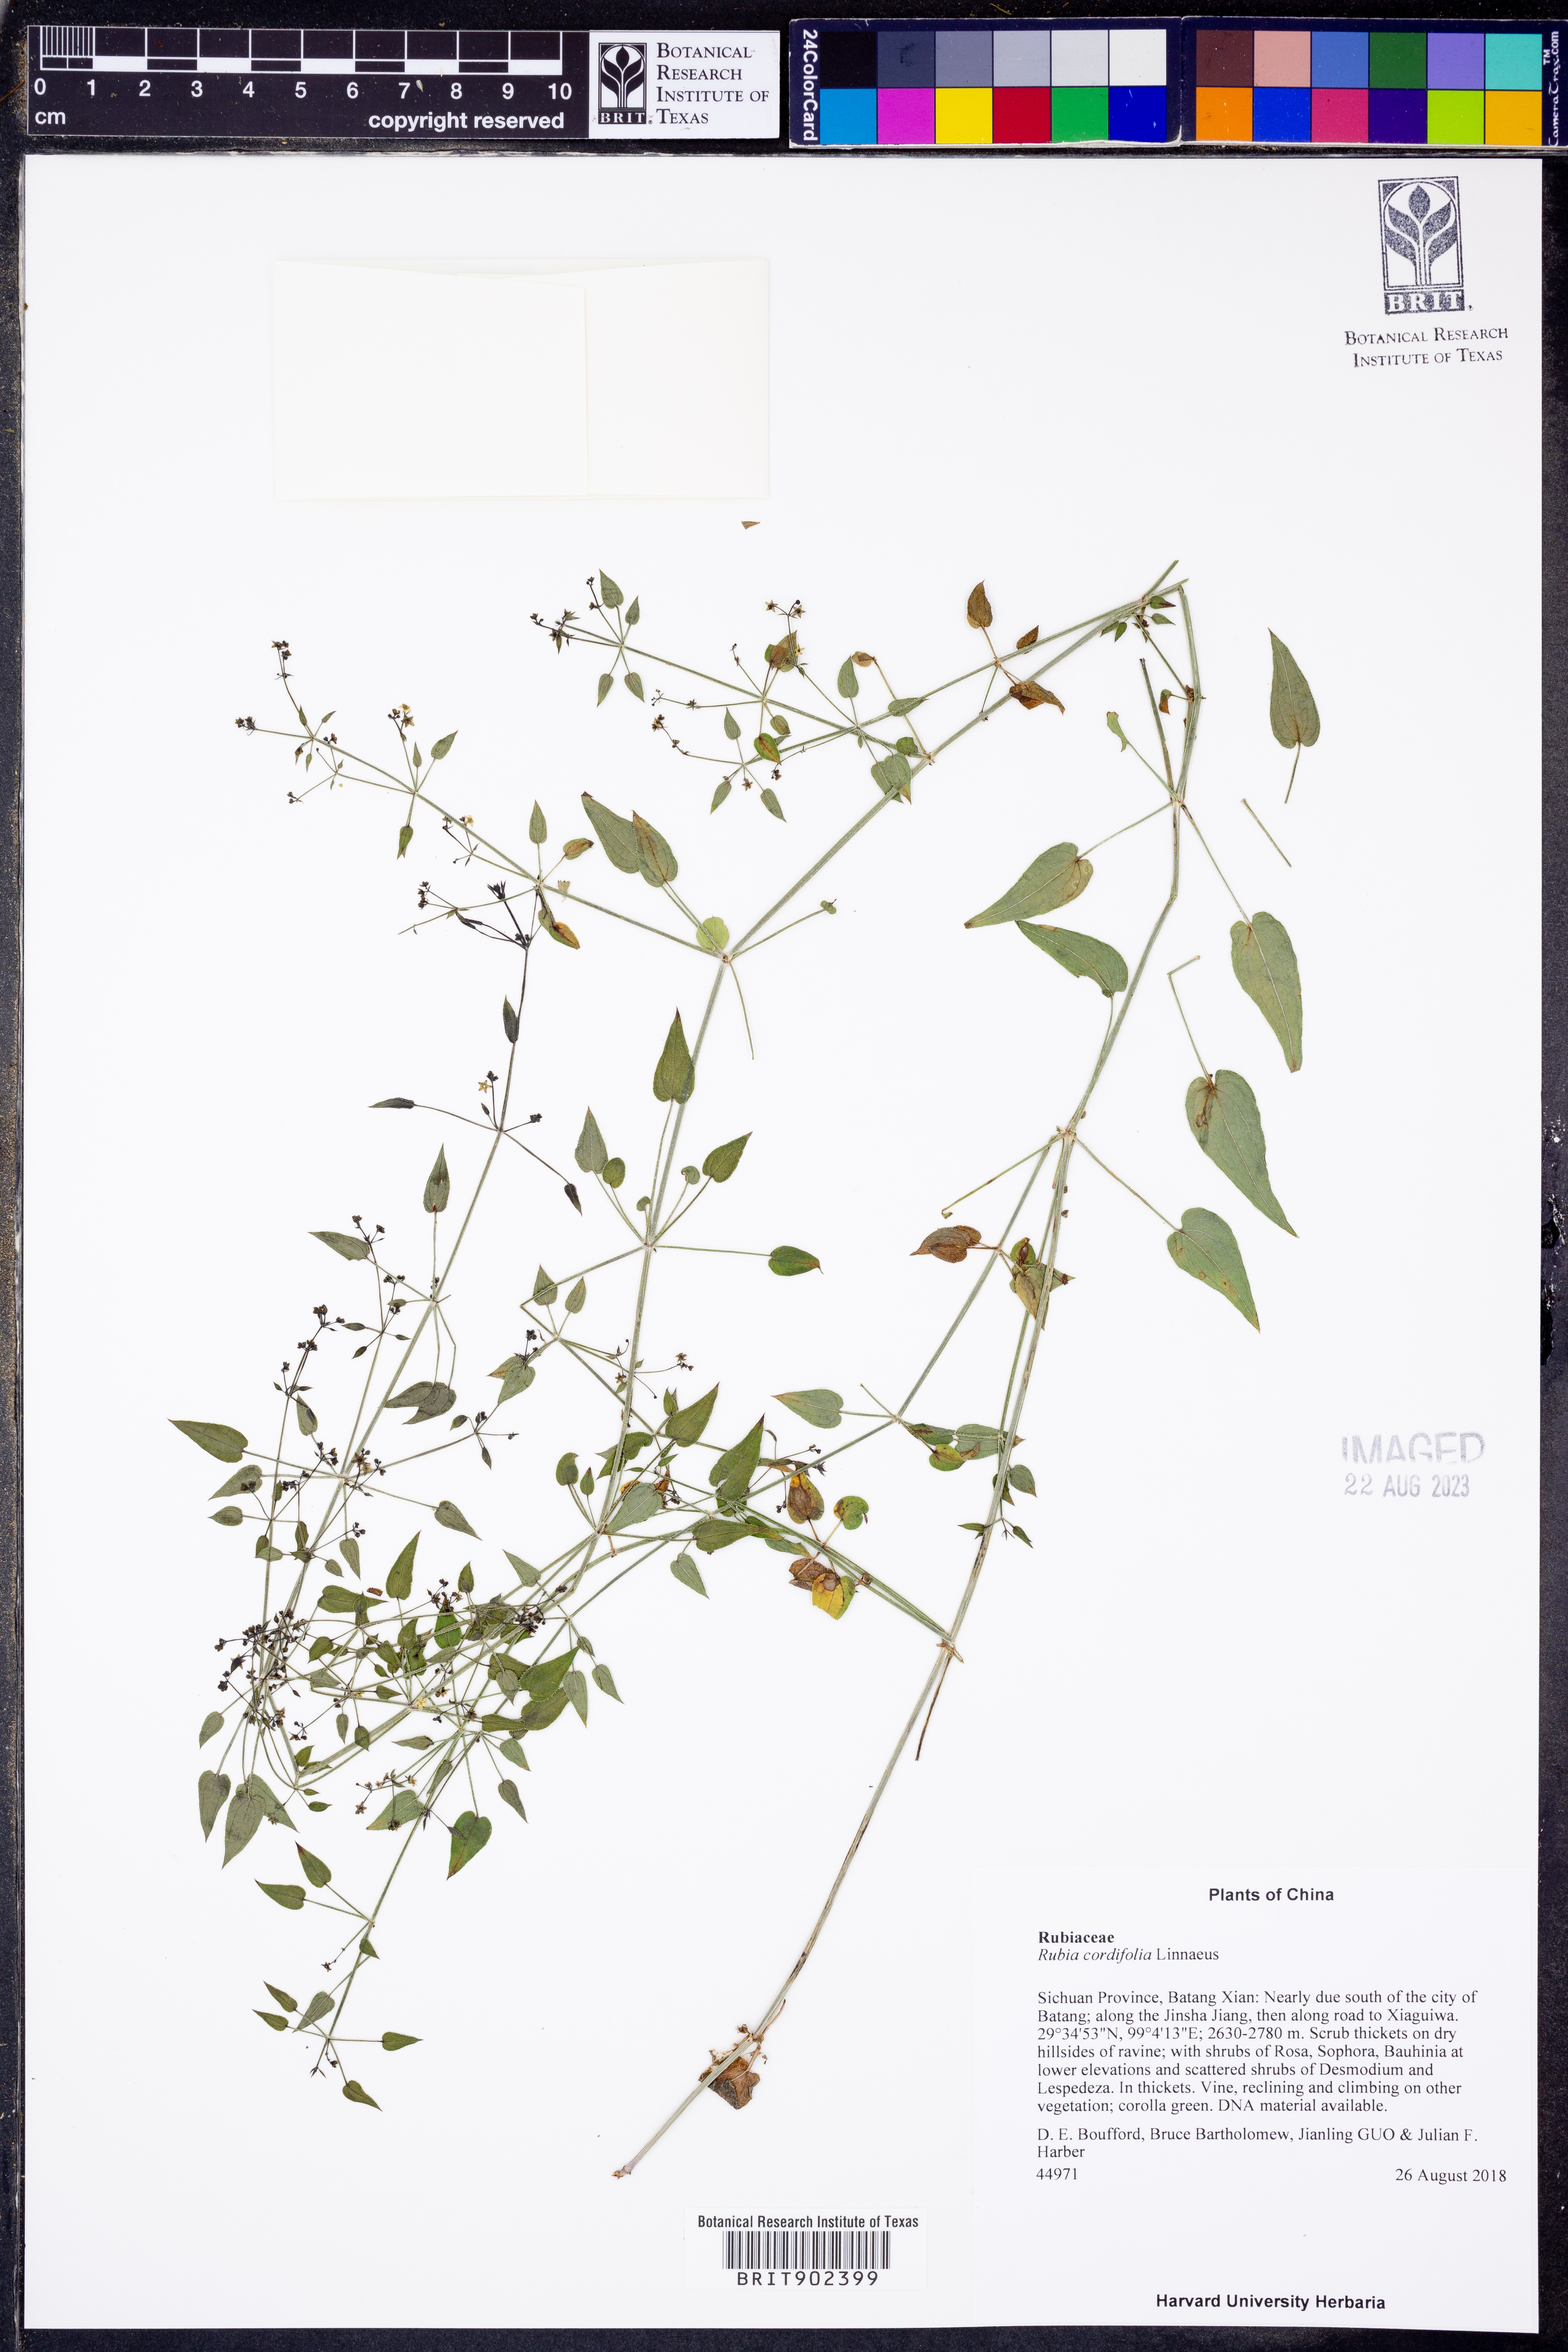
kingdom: Plantae
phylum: Tracheophyta
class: Magnoliopsida
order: Gentianales
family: Rubiaceae
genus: Rubia
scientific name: Rubia cordifolia
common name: Indian madder
